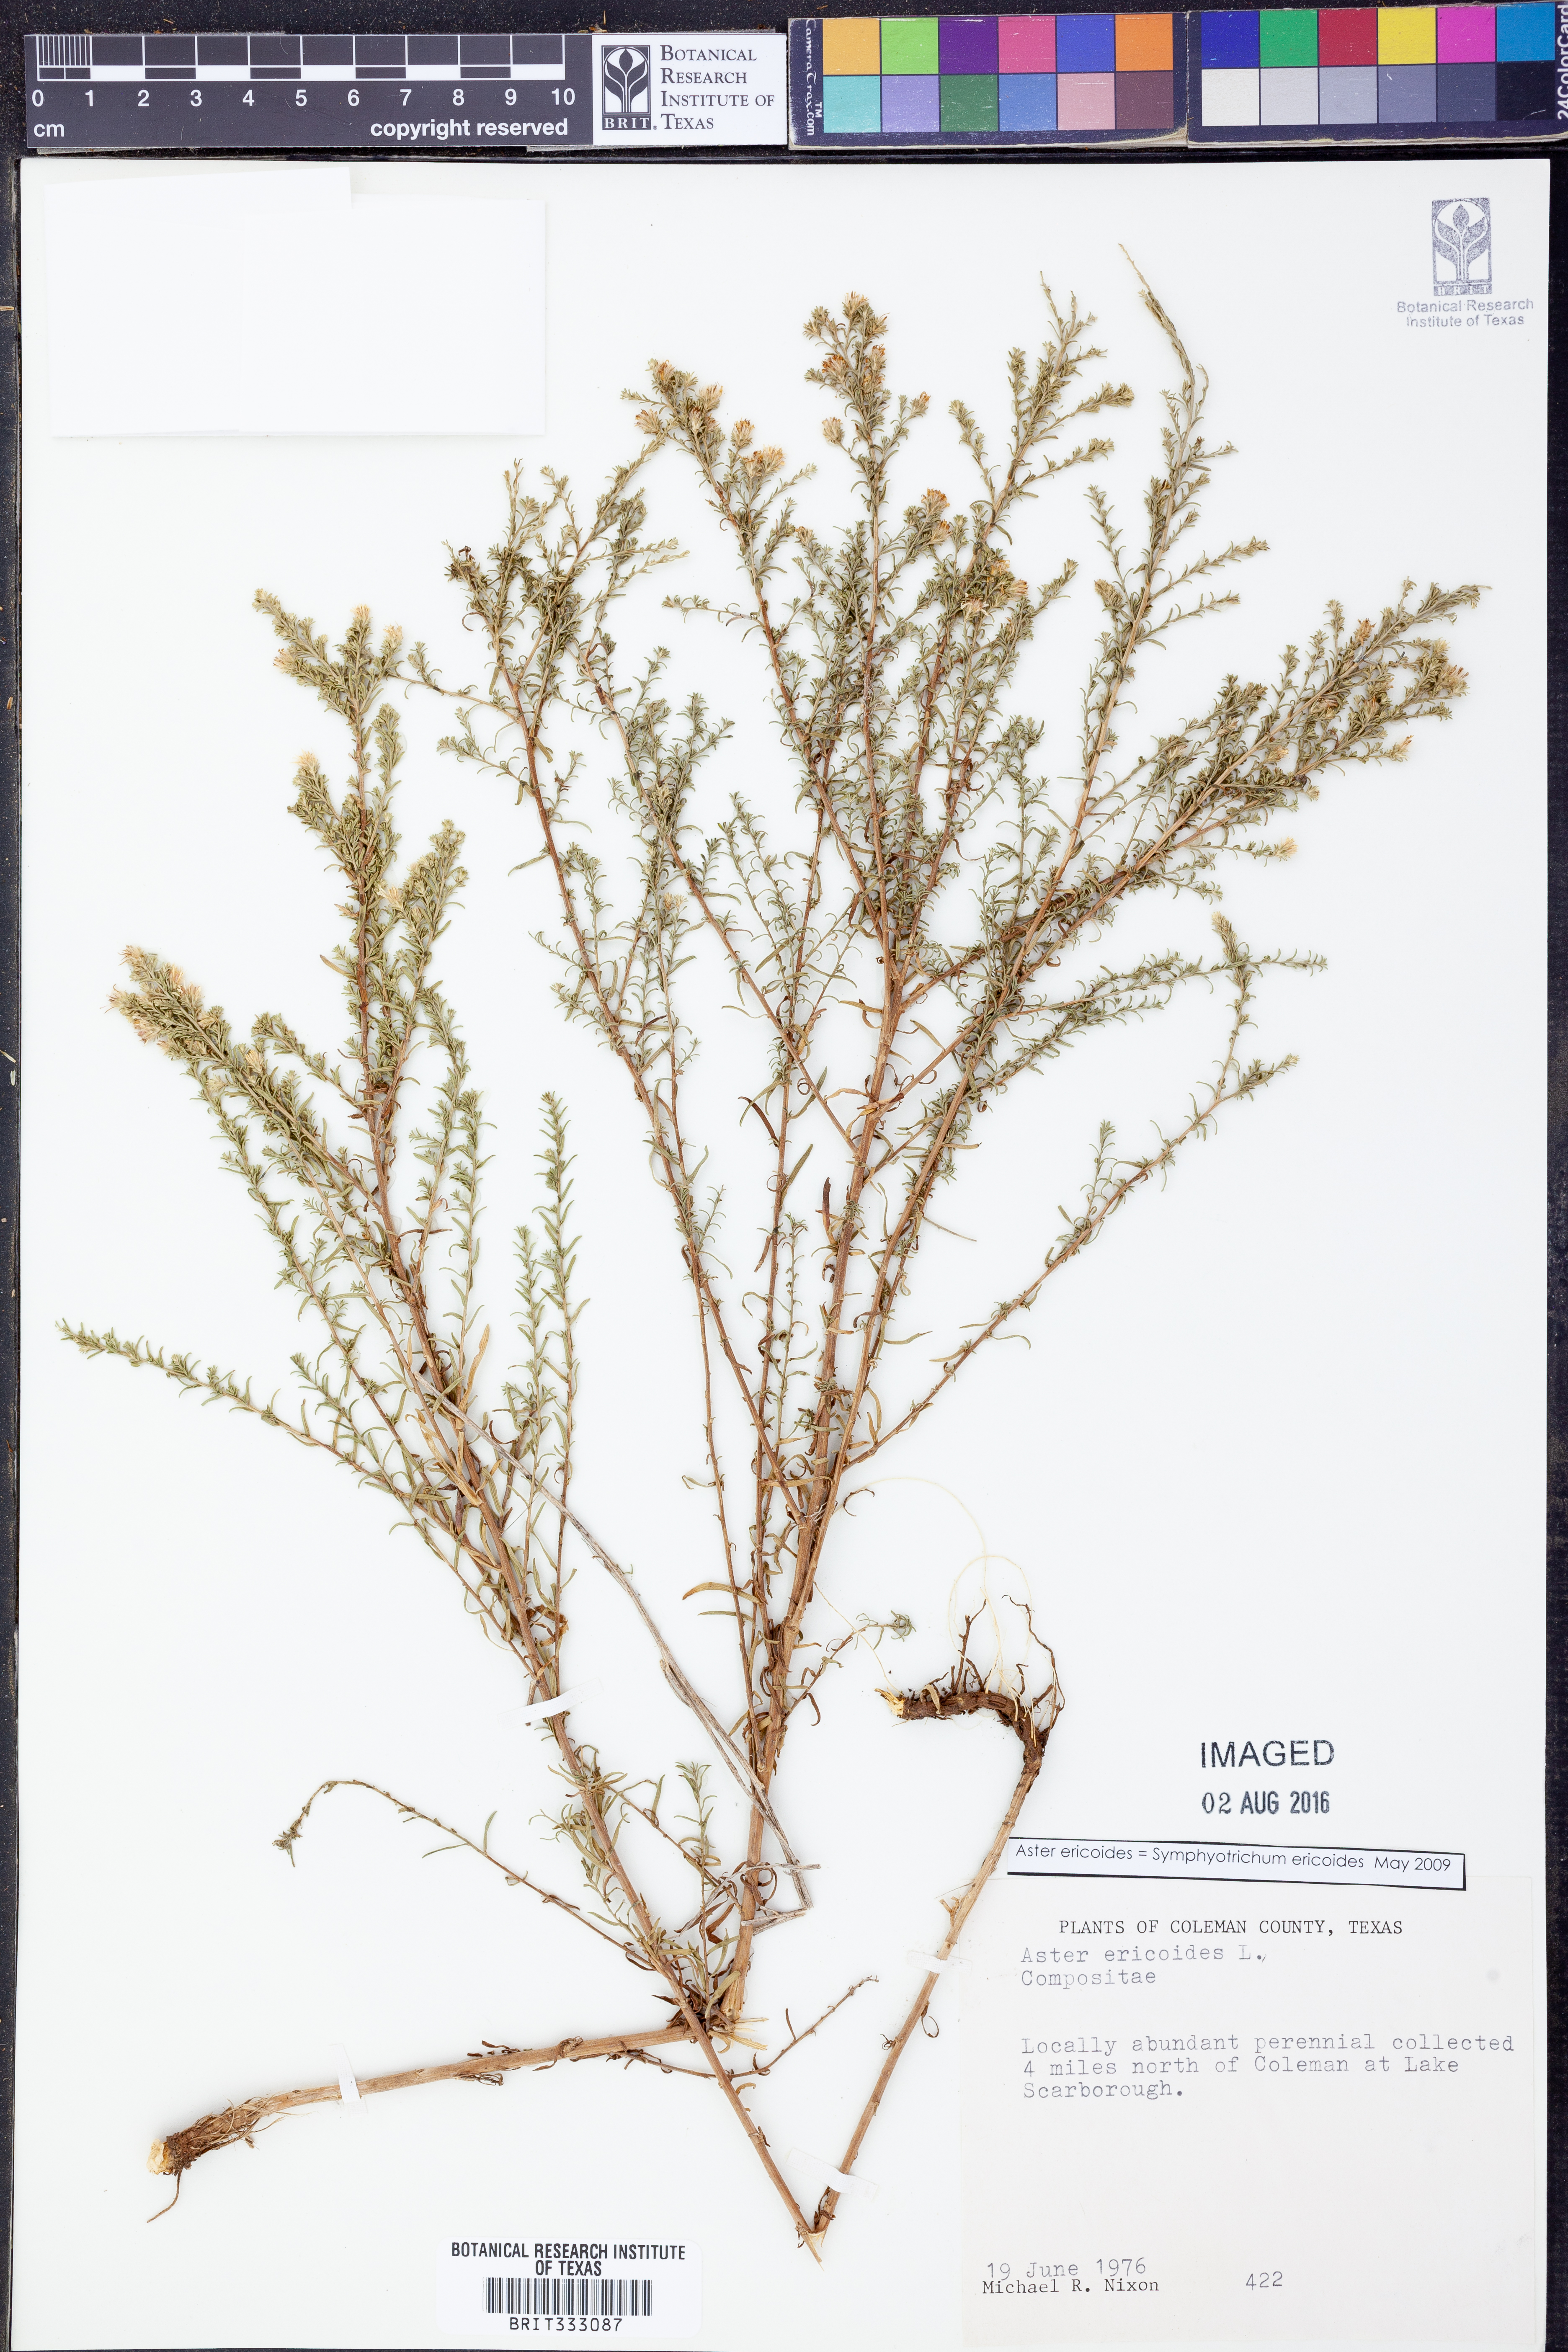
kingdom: Plantae
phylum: Tracheophyta
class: Magnoliopsida
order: Asterales
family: Asteraceae
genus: Symphyotrichum
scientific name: Symphyotrichum ericoides
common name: Heath aster
